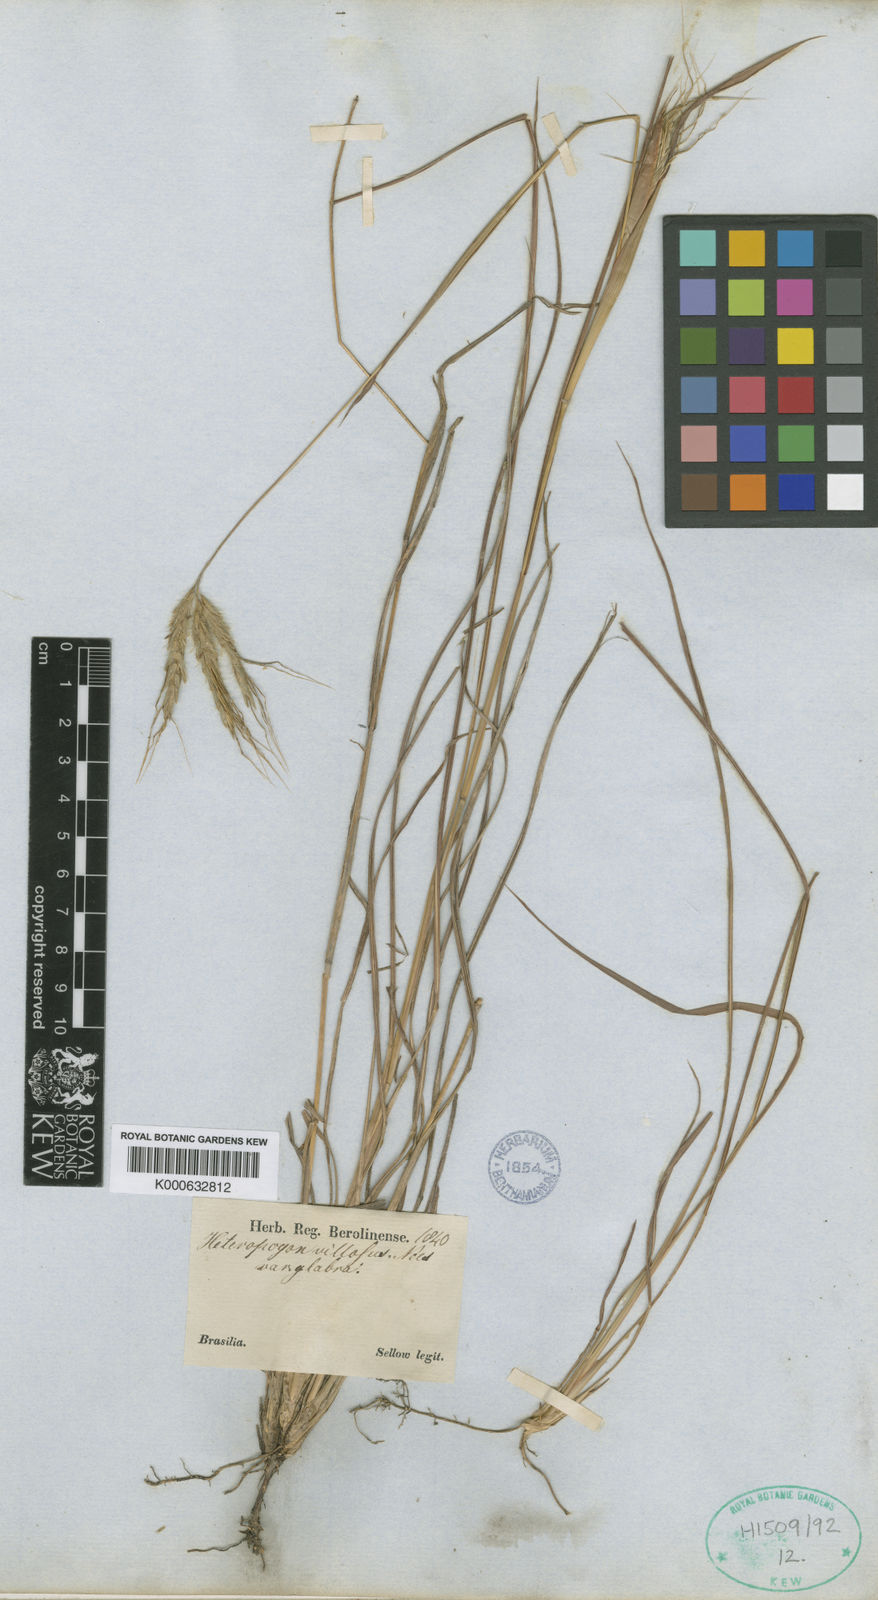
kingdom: Plantae
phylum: Tracheophyta
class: Liliopsida
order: Poales
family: Poaceae
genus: Agenium
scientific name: Agenium villosum
